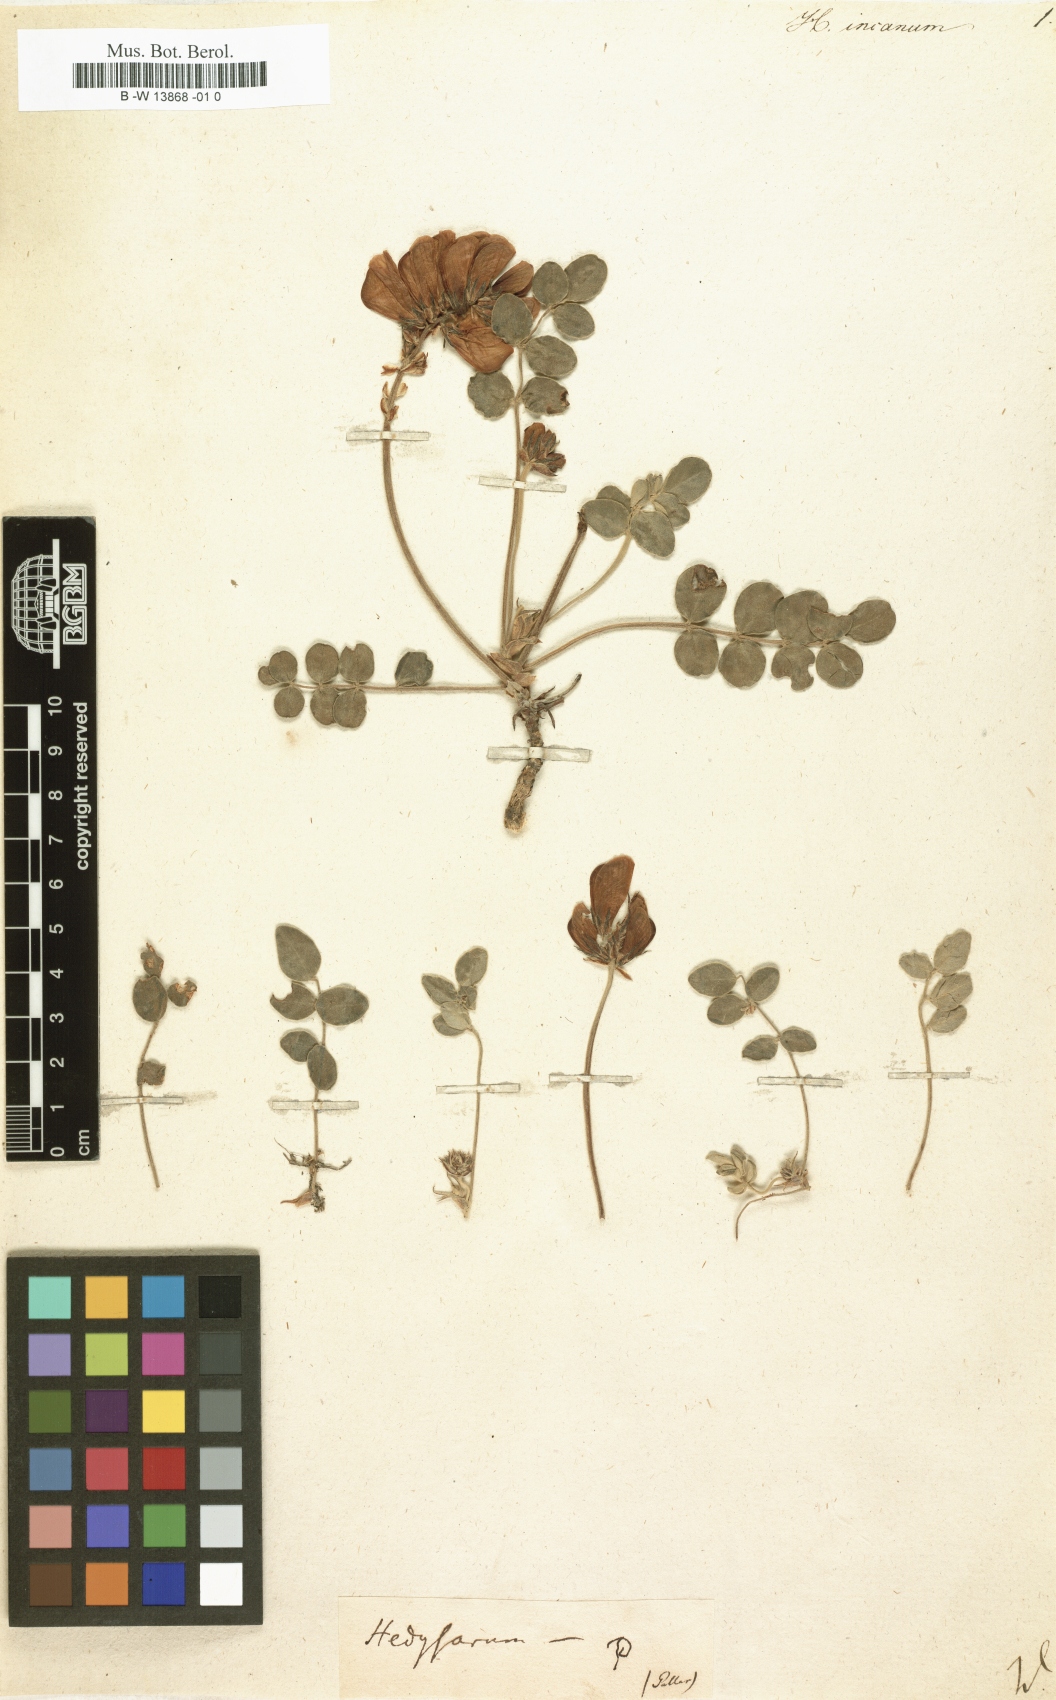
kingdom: Plantae
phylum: Tracheophyta
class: Magnoliopsida
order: Fabales
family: Fabaceae
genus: Desmodium
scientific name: Desmodium incanum
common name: Tickclover
